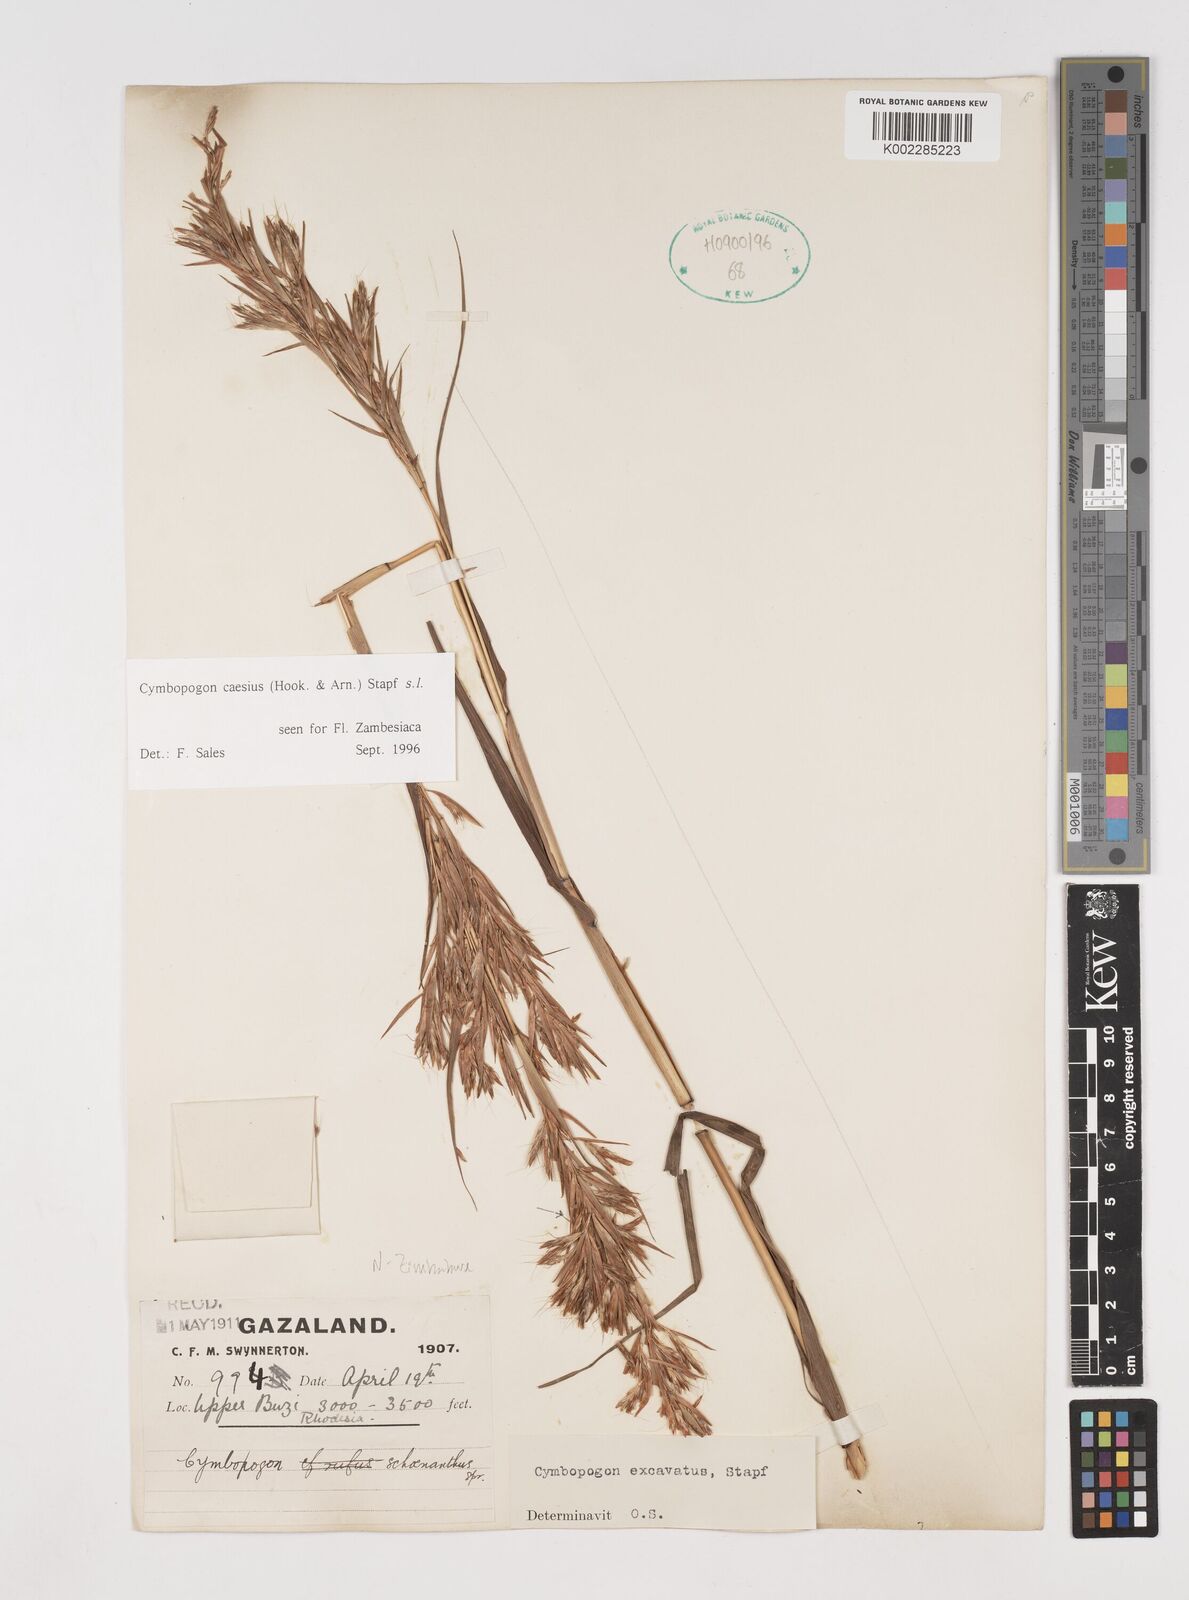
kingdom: Plantae
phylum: Tracheophyta
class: Liliopsida
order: Poales
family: Poaceae
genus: Cymbopogon
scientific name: Cymbopogon caesius
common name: Kachi grass
